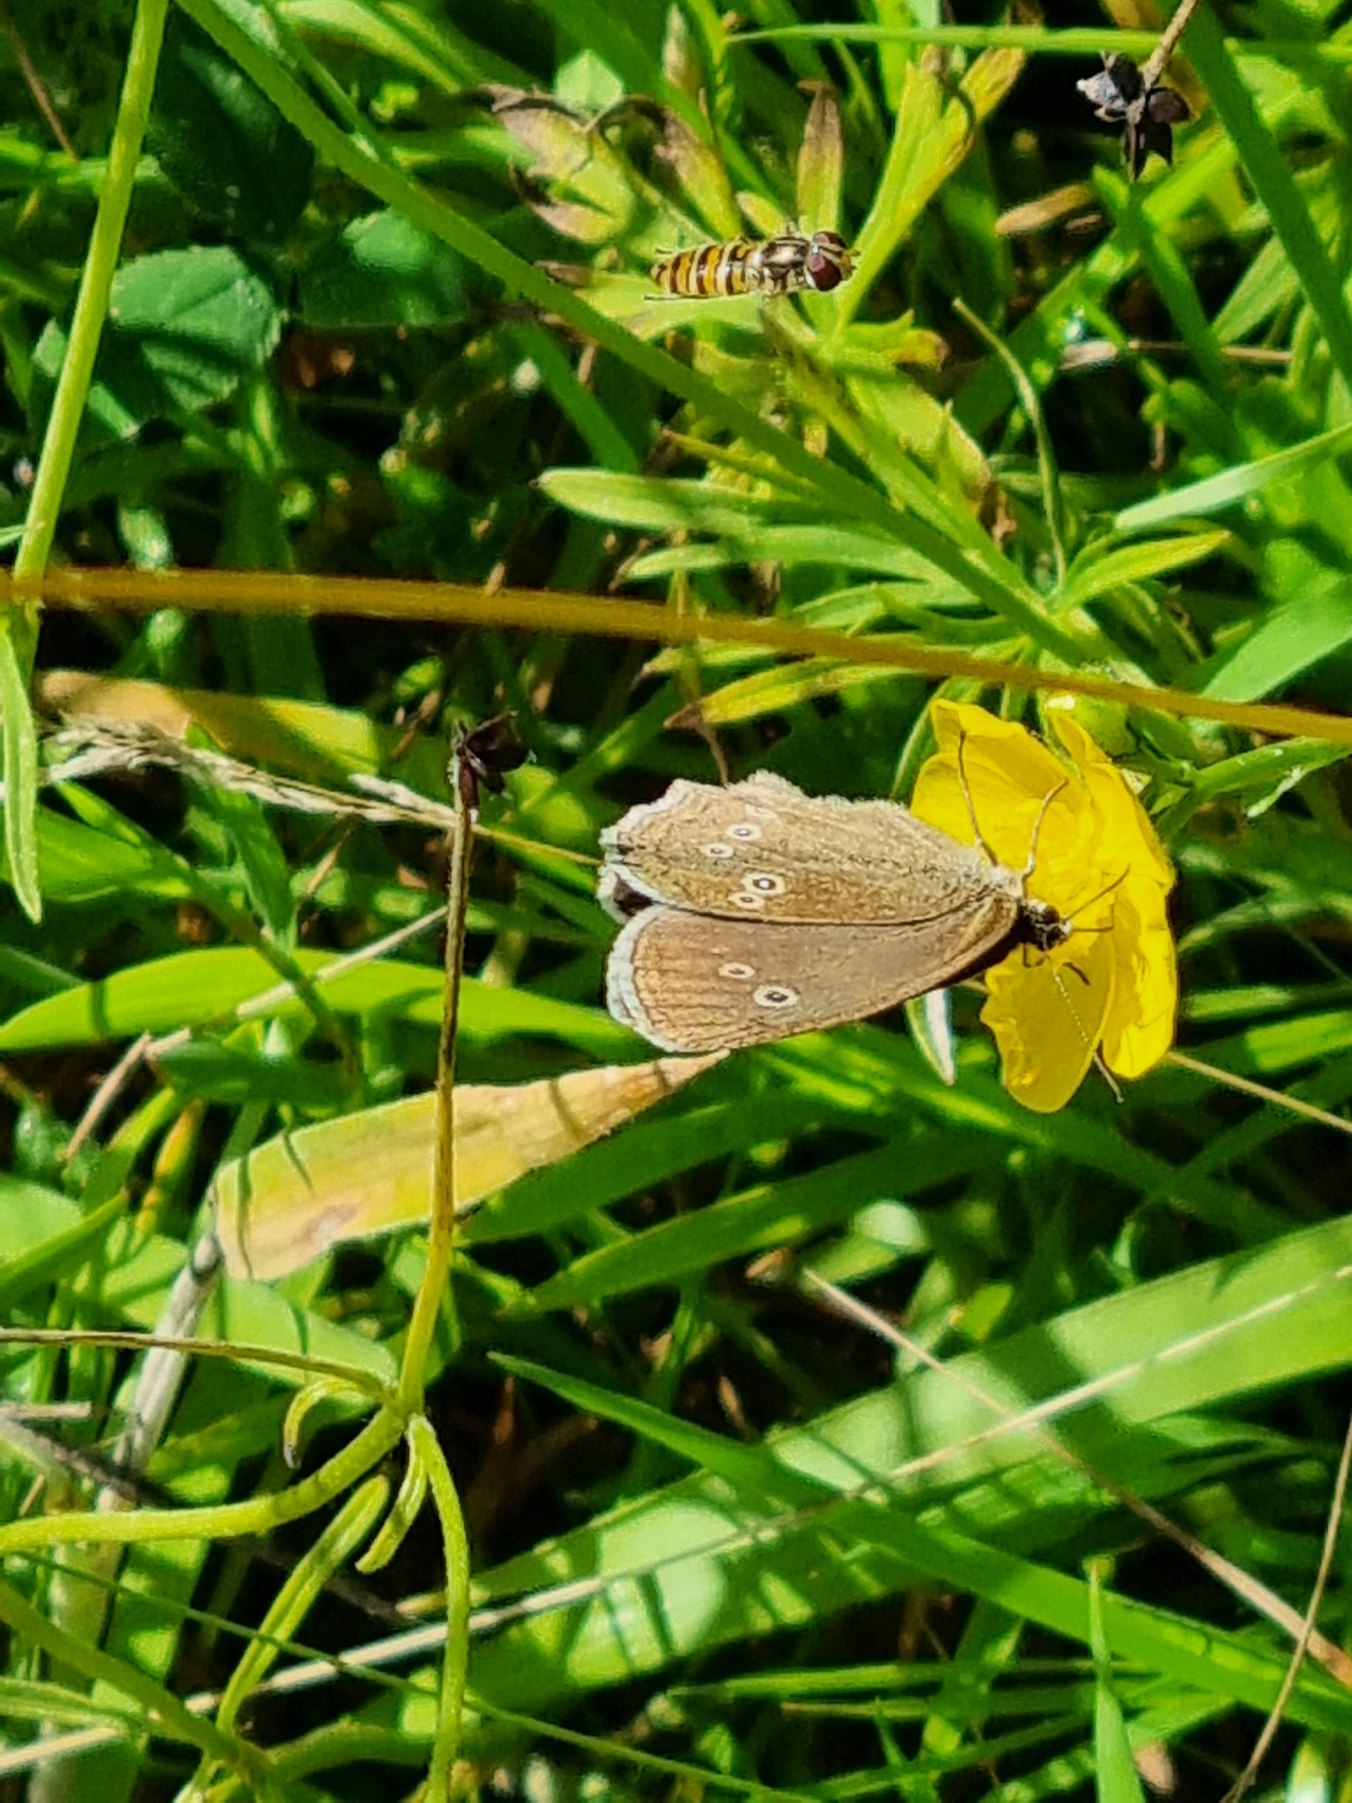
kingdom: Animalia
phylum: Arthropoda
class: Insecta
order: Lepidoptera
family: Nymphalidae
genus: Aphantopus
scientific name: Aphantopus hyperantus
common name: Engrandøje
